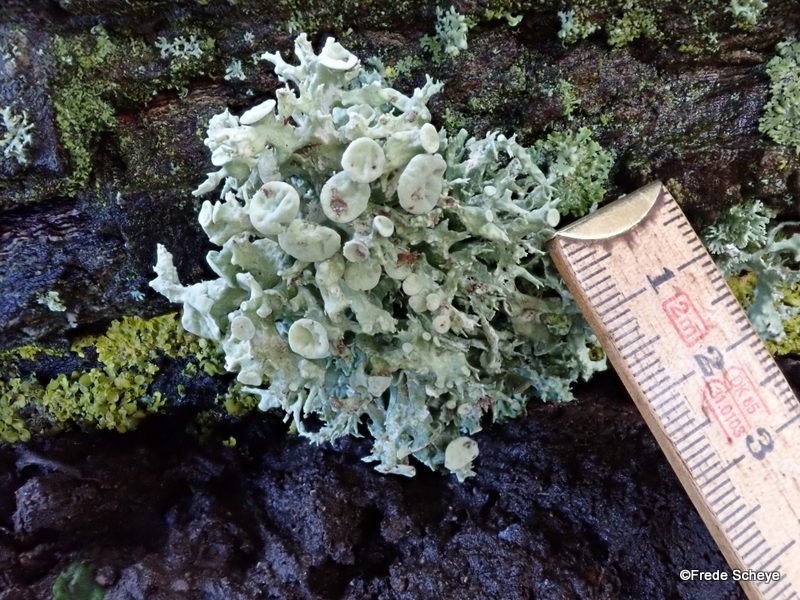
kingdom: Fungi
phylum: Ascomycota
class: Lecanoromycetes
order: Lecanorales
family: Ramalinaceae
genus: Ramalina
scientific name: Ramalina fastigiata
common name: tue-grenlav
